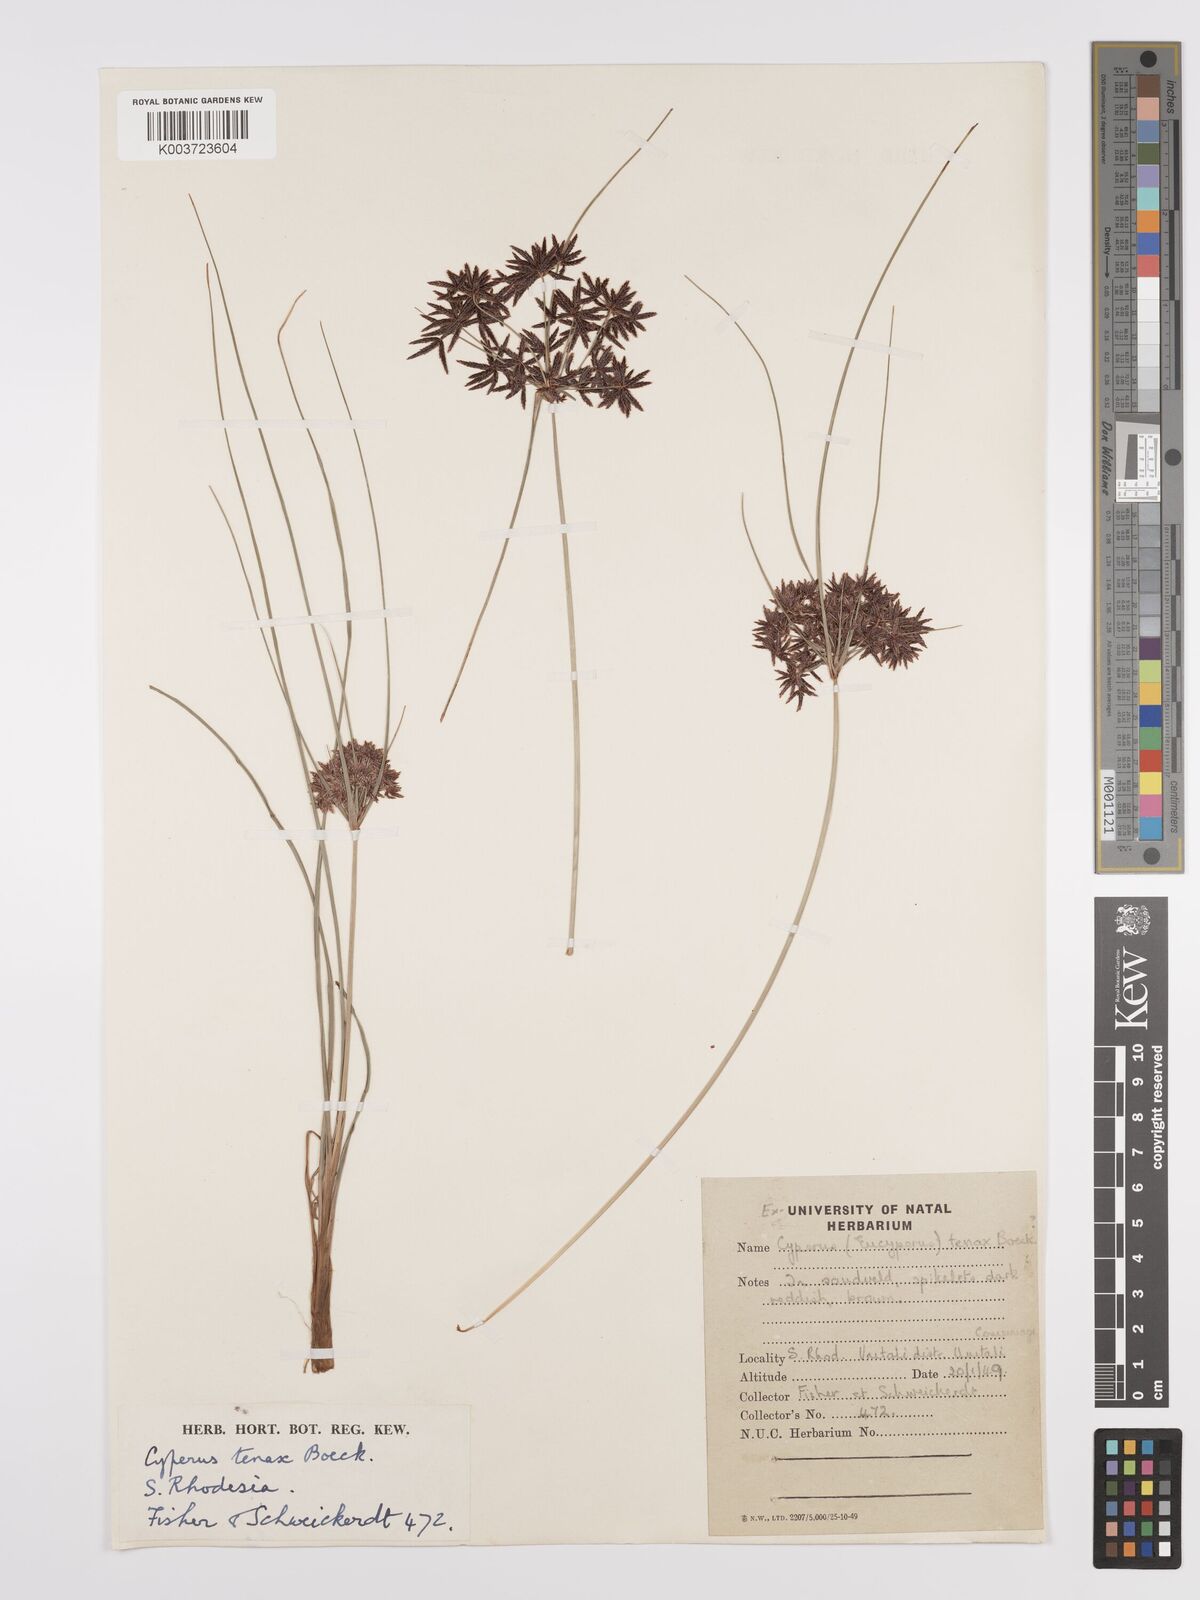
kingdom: Plantae
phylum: Tracheophyta
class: Liliopsida
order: Poales
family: Cyperaceae
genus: Cyperus
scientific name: Cyperus tenax
